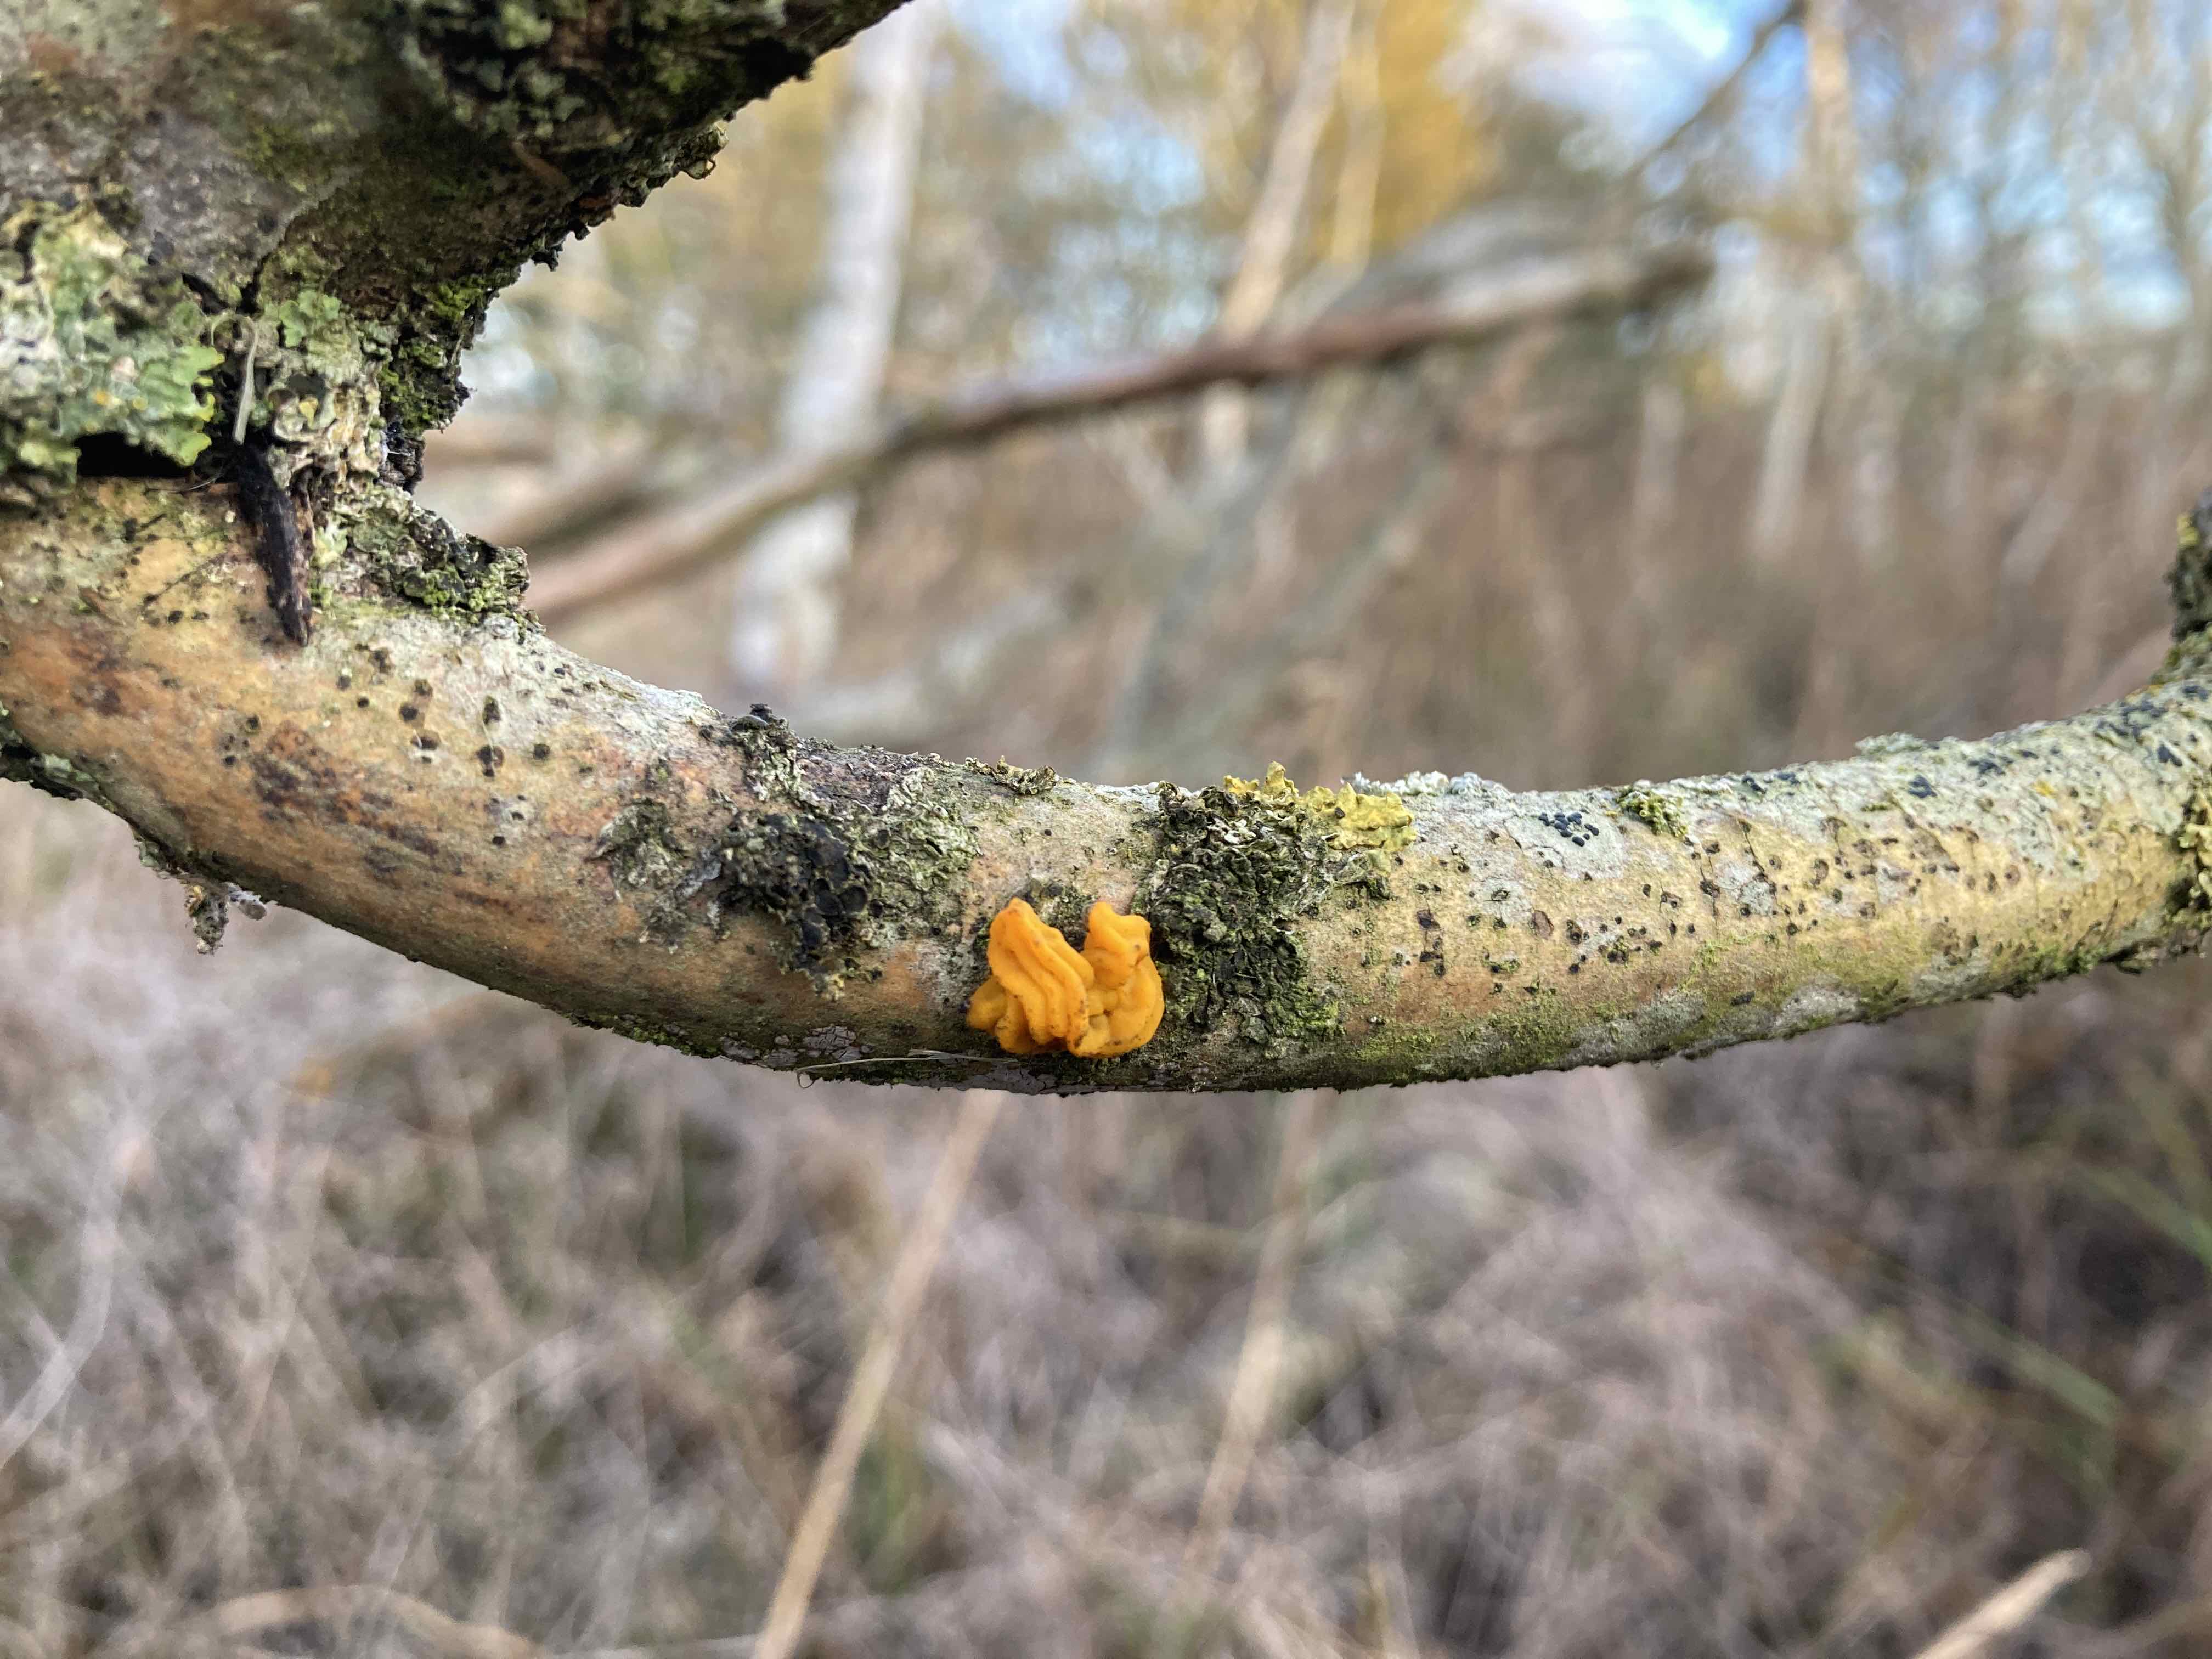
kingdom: Fungi
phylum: Basidiomycota
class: Tremellomycetes
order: Tremellales
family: Tremellaceae
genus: Tremella
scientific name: Tremella mesenterica
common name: gul bævresvamp
